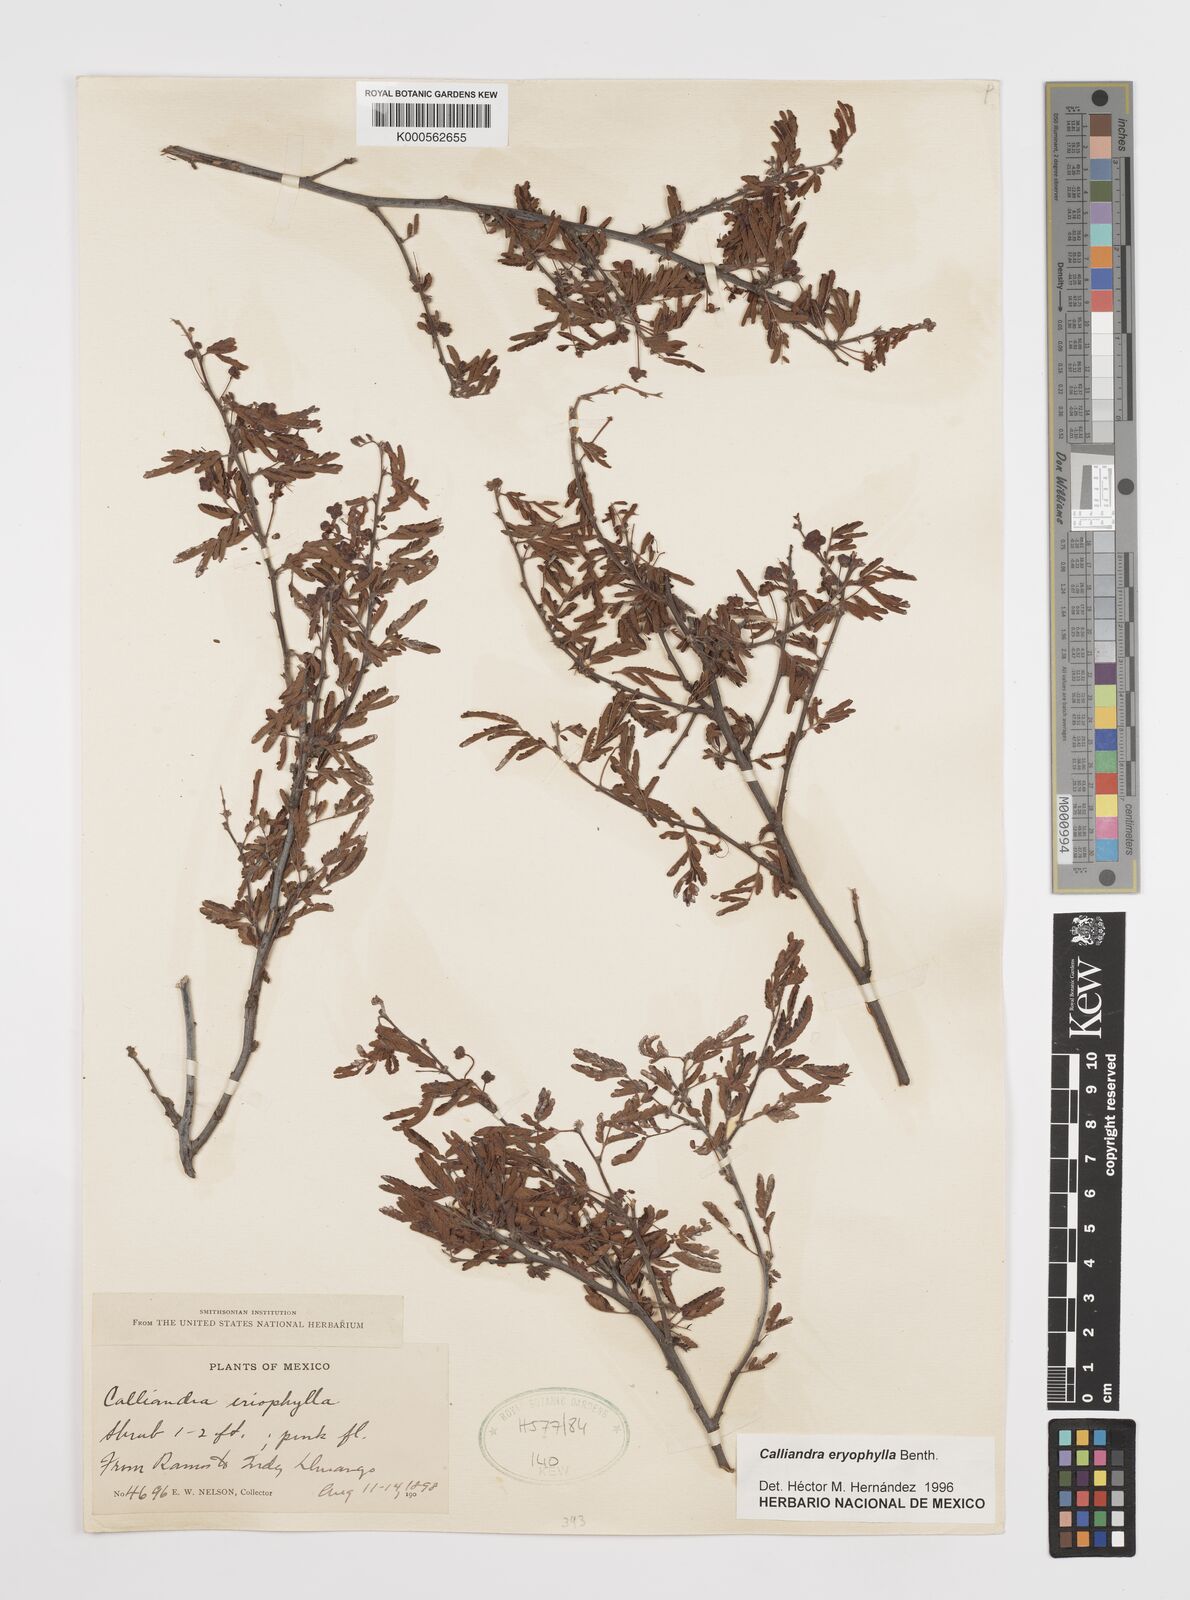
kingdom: Plantae
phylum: Tracheophyta
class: Magnoliopsida
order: Fabales
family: Fabaceae
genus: Calliandra
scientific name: Calliandra eriophylla
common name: Fairy-duster
